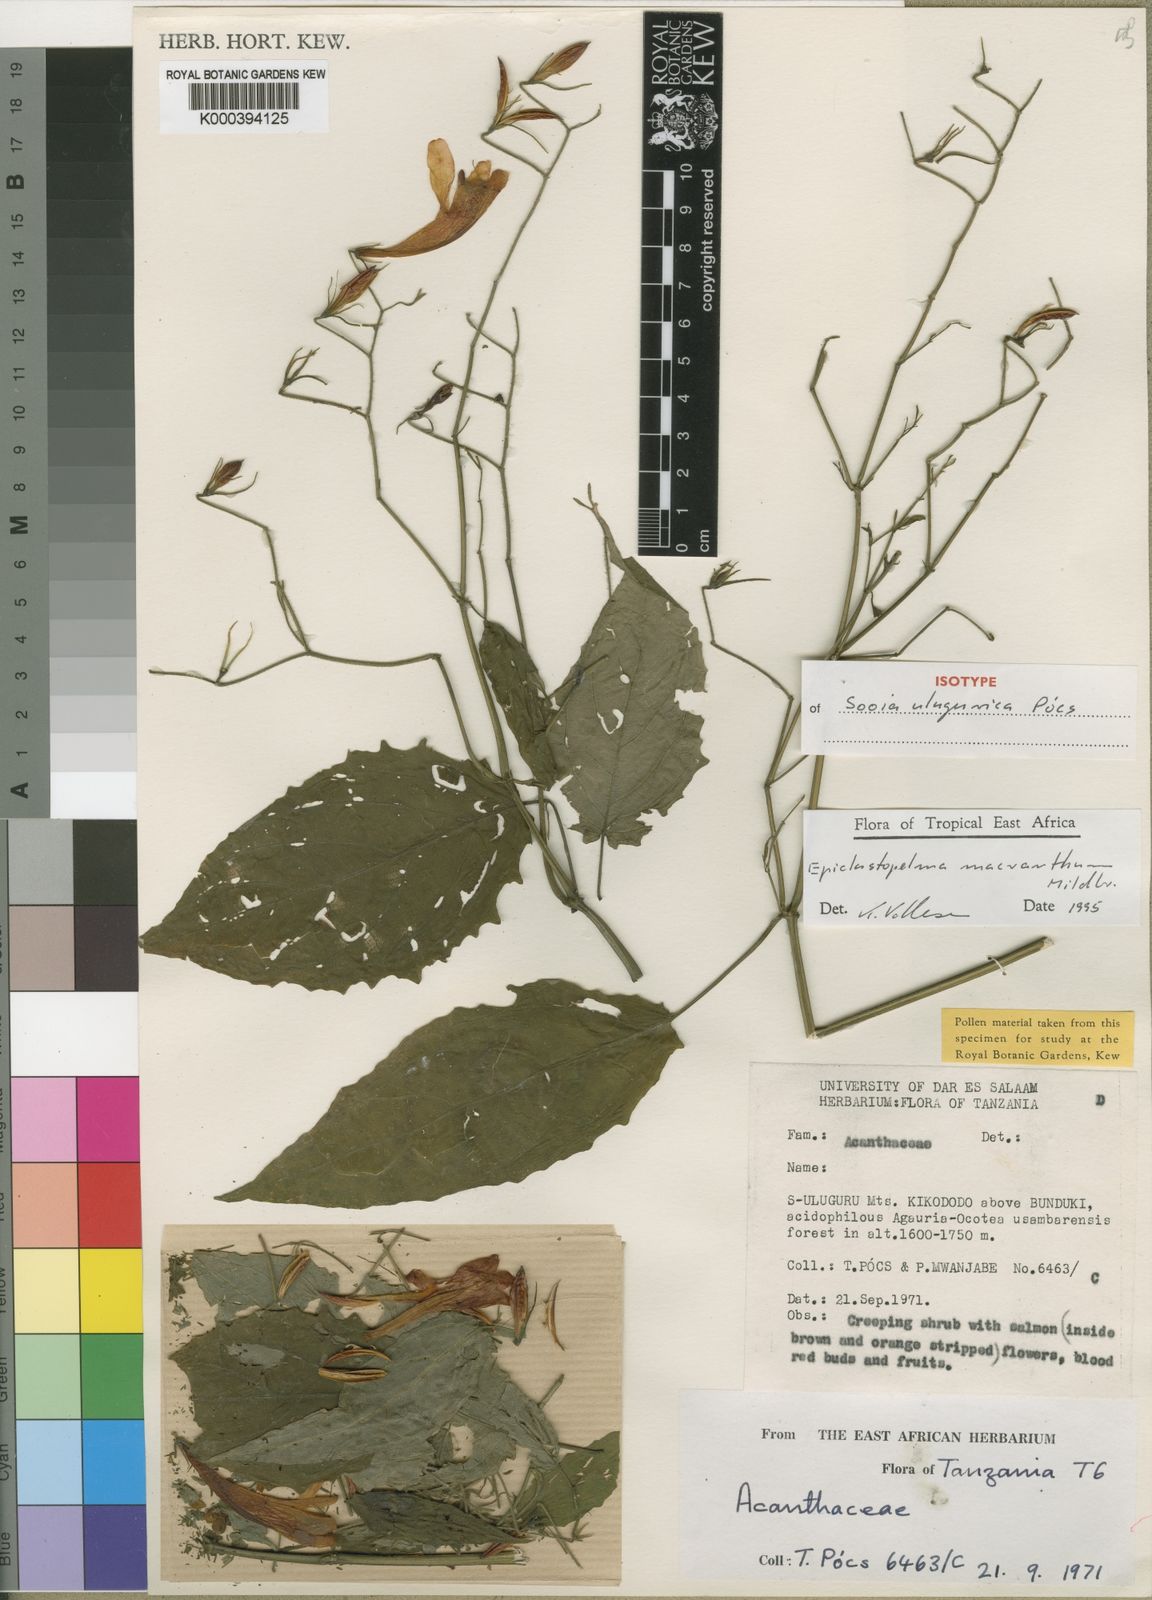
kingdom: Plantae
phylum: Tracheophyta
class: Magnoliopsida
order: Lamiales
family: Acanthaceae
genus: Mimulopsis
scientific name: Mimulopsis macrantha
